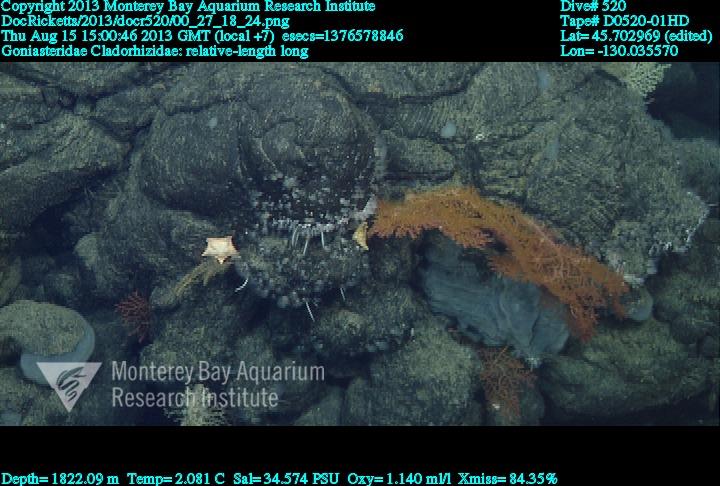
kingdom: Animalia
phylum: Porifera
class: Demospongiae
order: Poecilosclerida
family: Cladorhizidae
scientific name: Cladorhizidae
